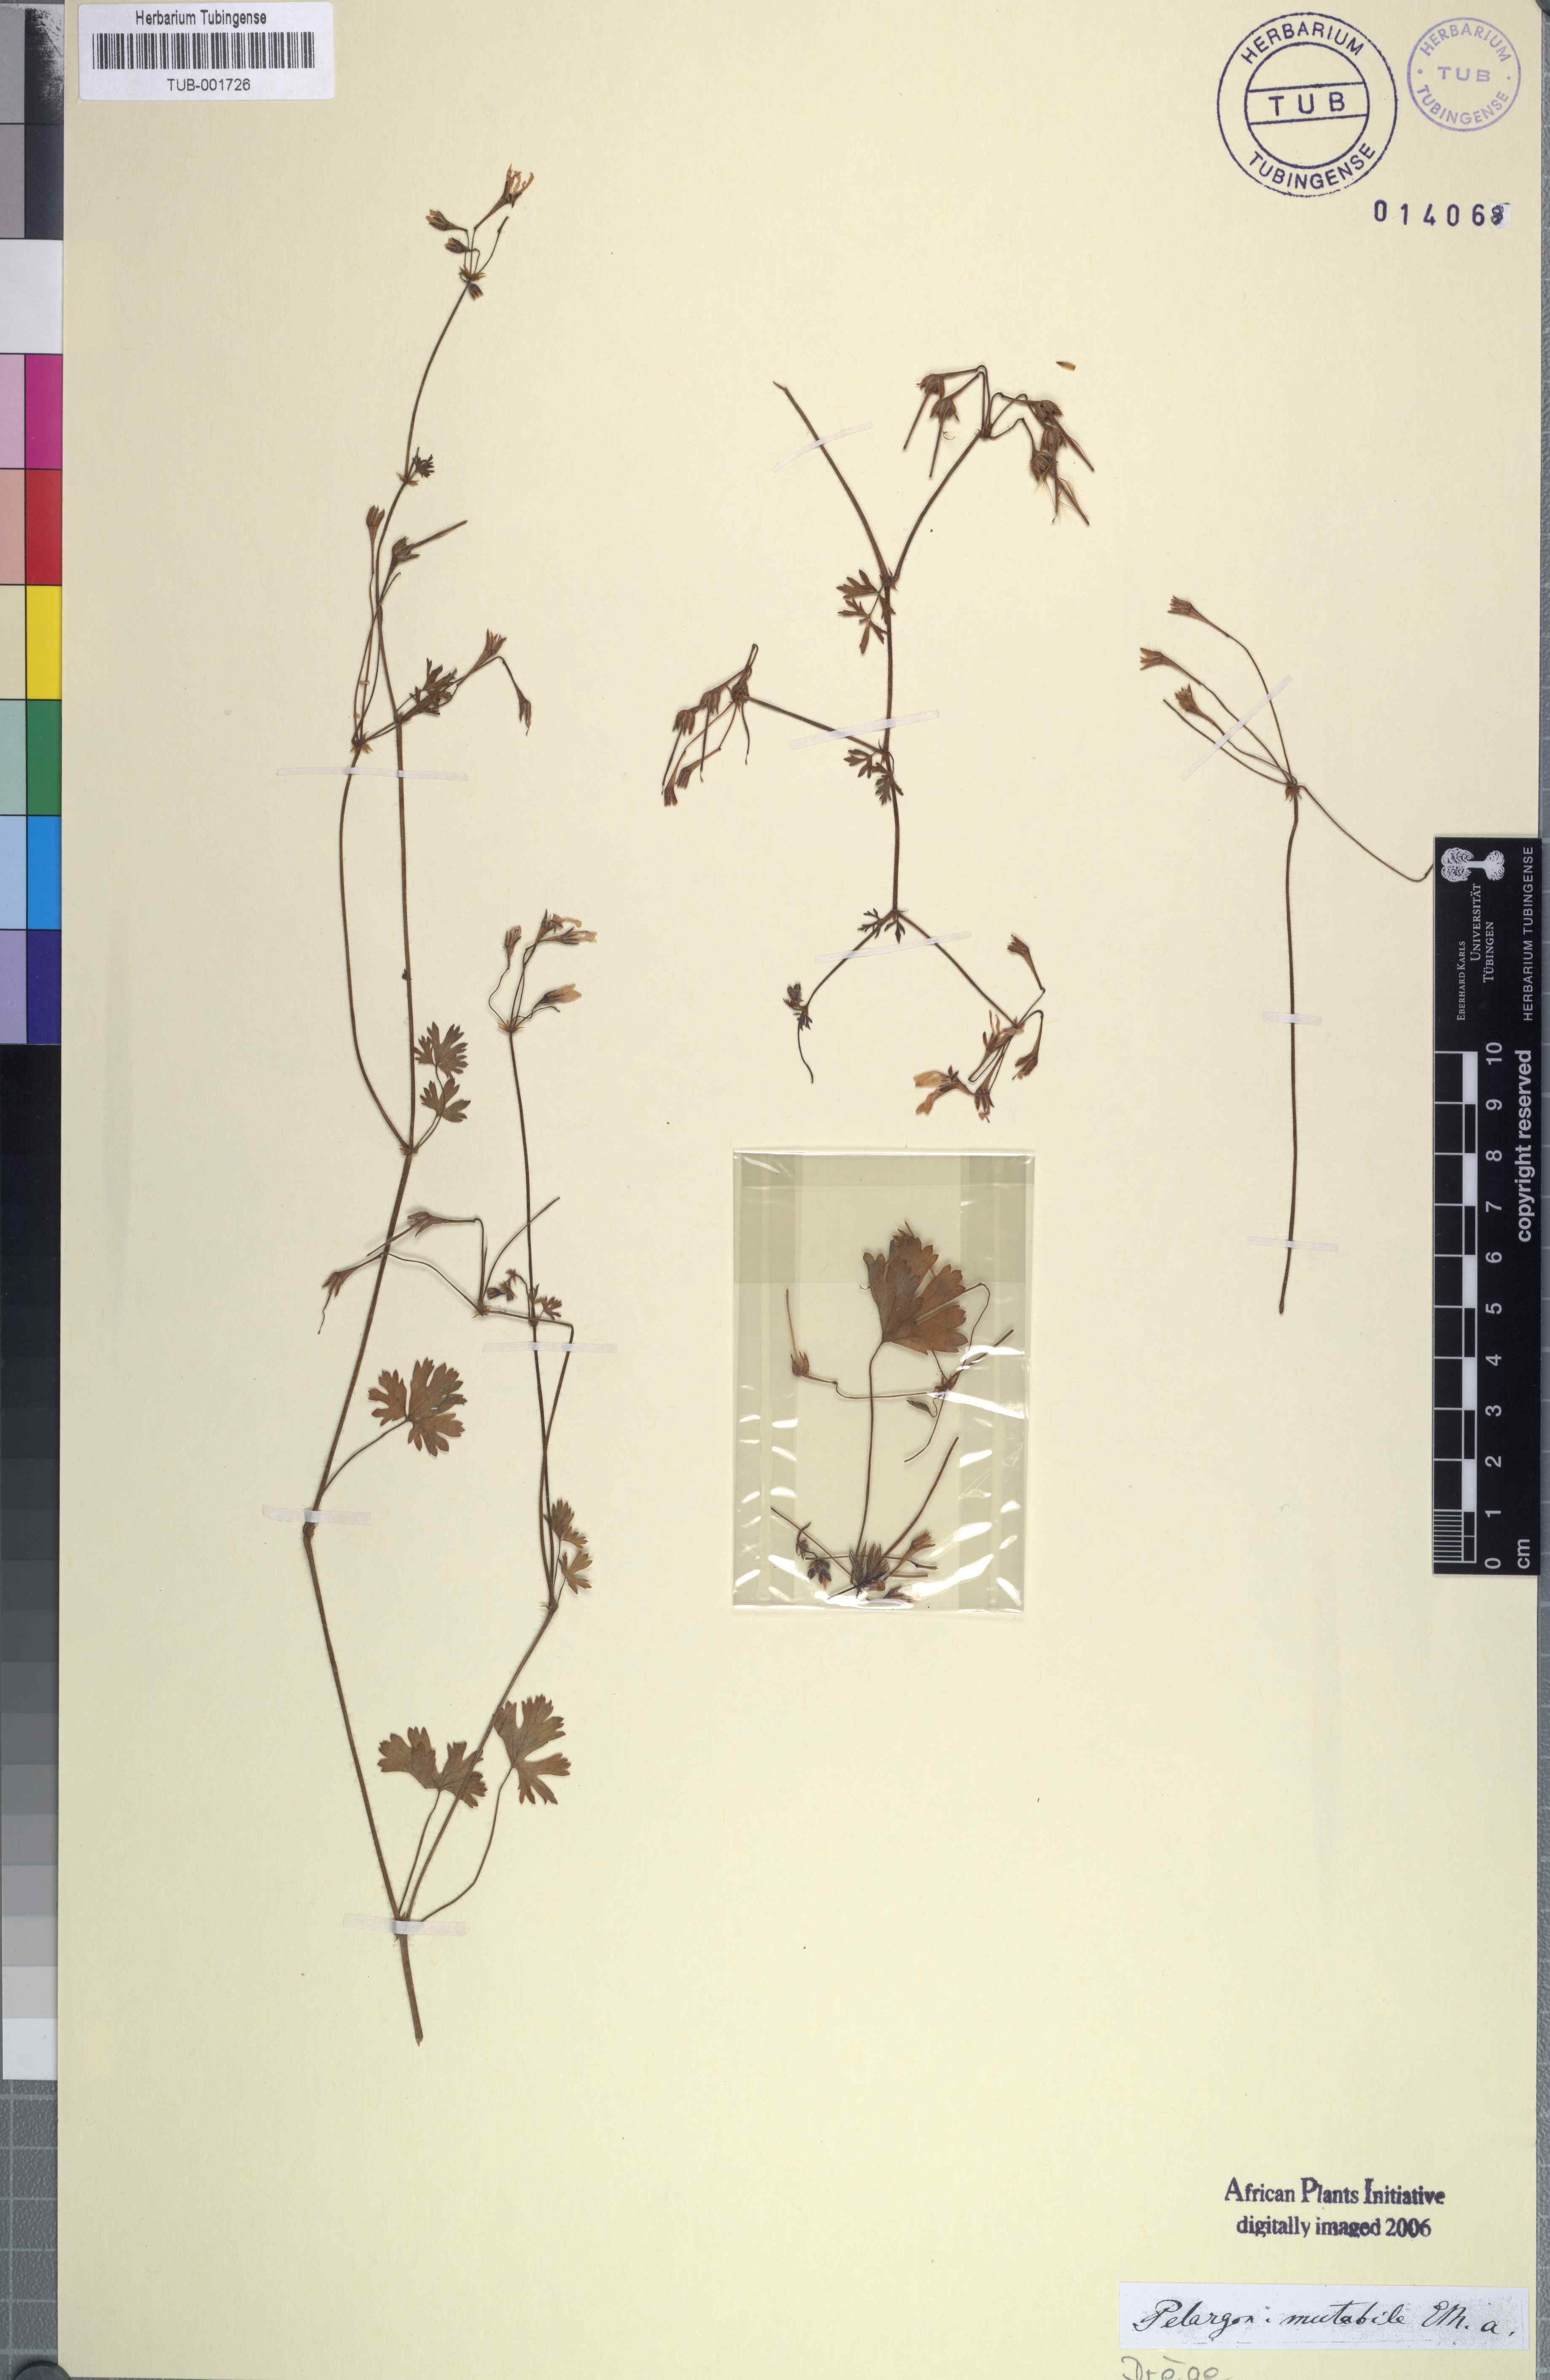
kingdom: Plantae
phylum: Tracheophyta
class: Magnoliopsida
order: Geraniales
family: Geraniaceae
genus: Pelargonium
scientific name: Pelargonium australe
